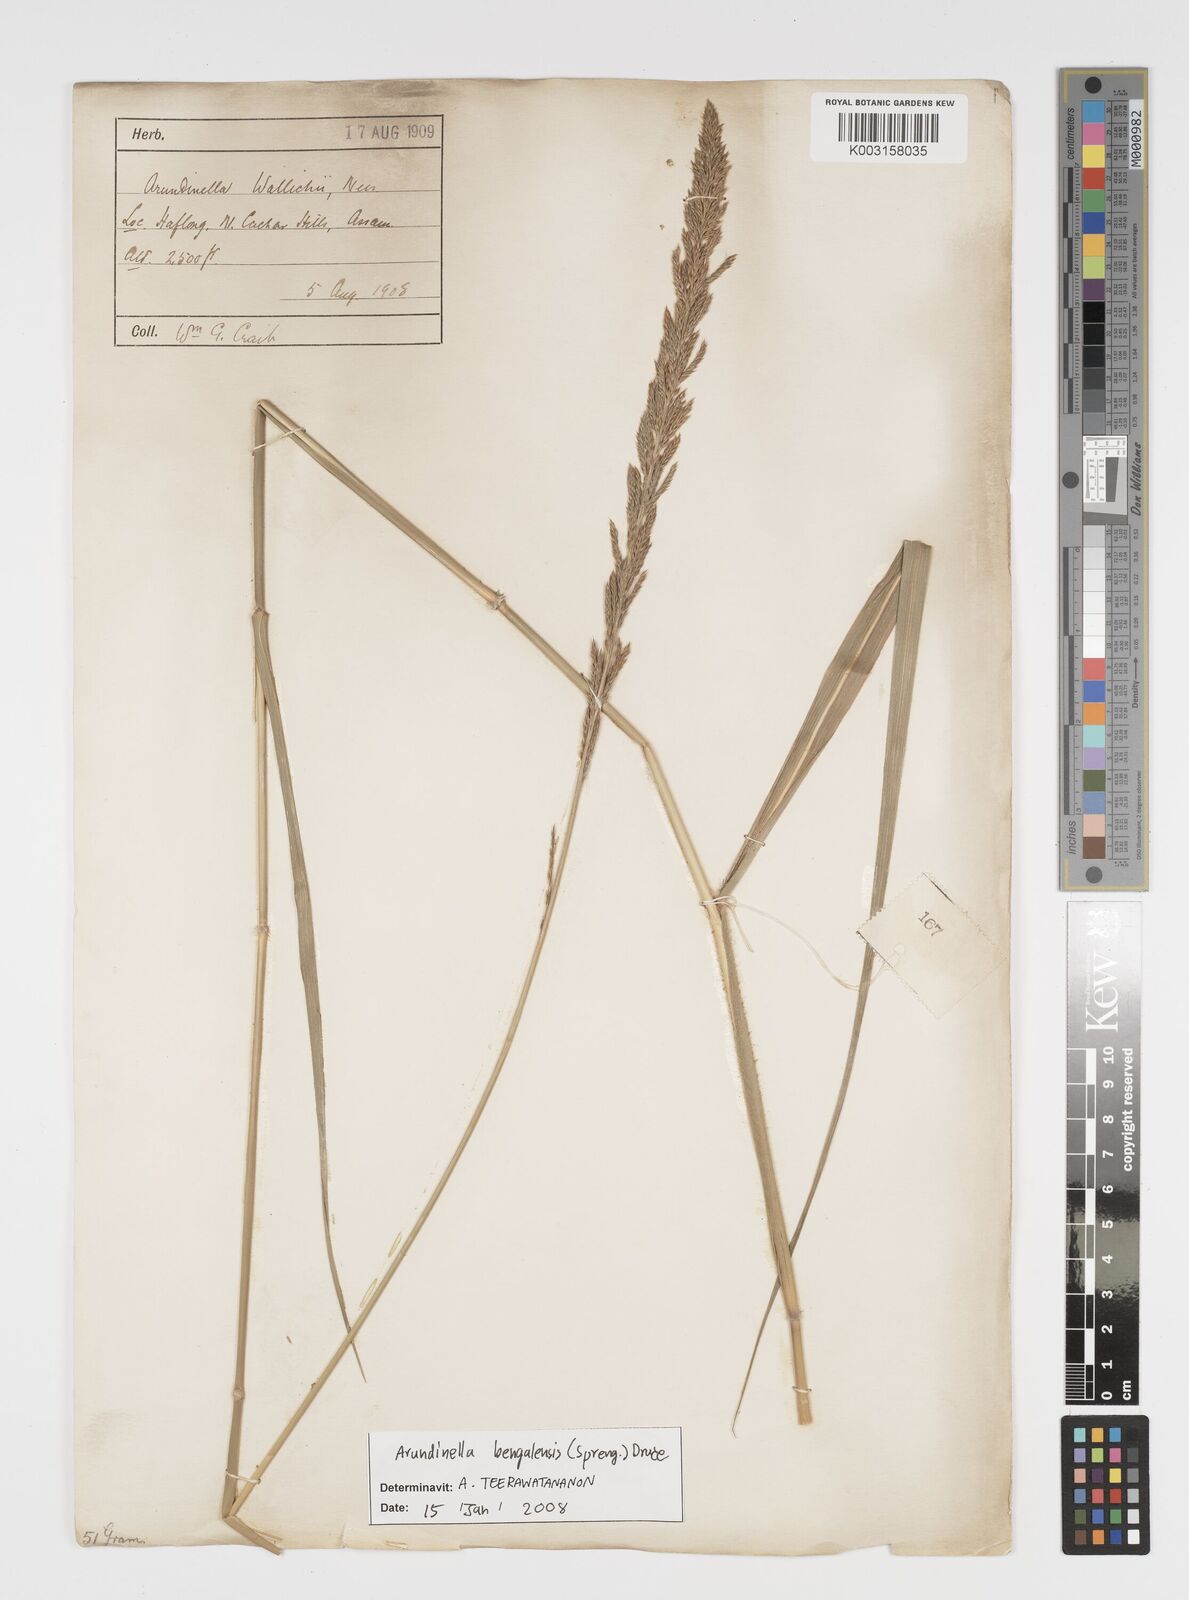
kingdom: Plantae
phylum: Tracheophyta
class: Liliopsida
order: Poales
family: Poaceae
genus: Arundinella
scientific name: Arundinella bengalensis
